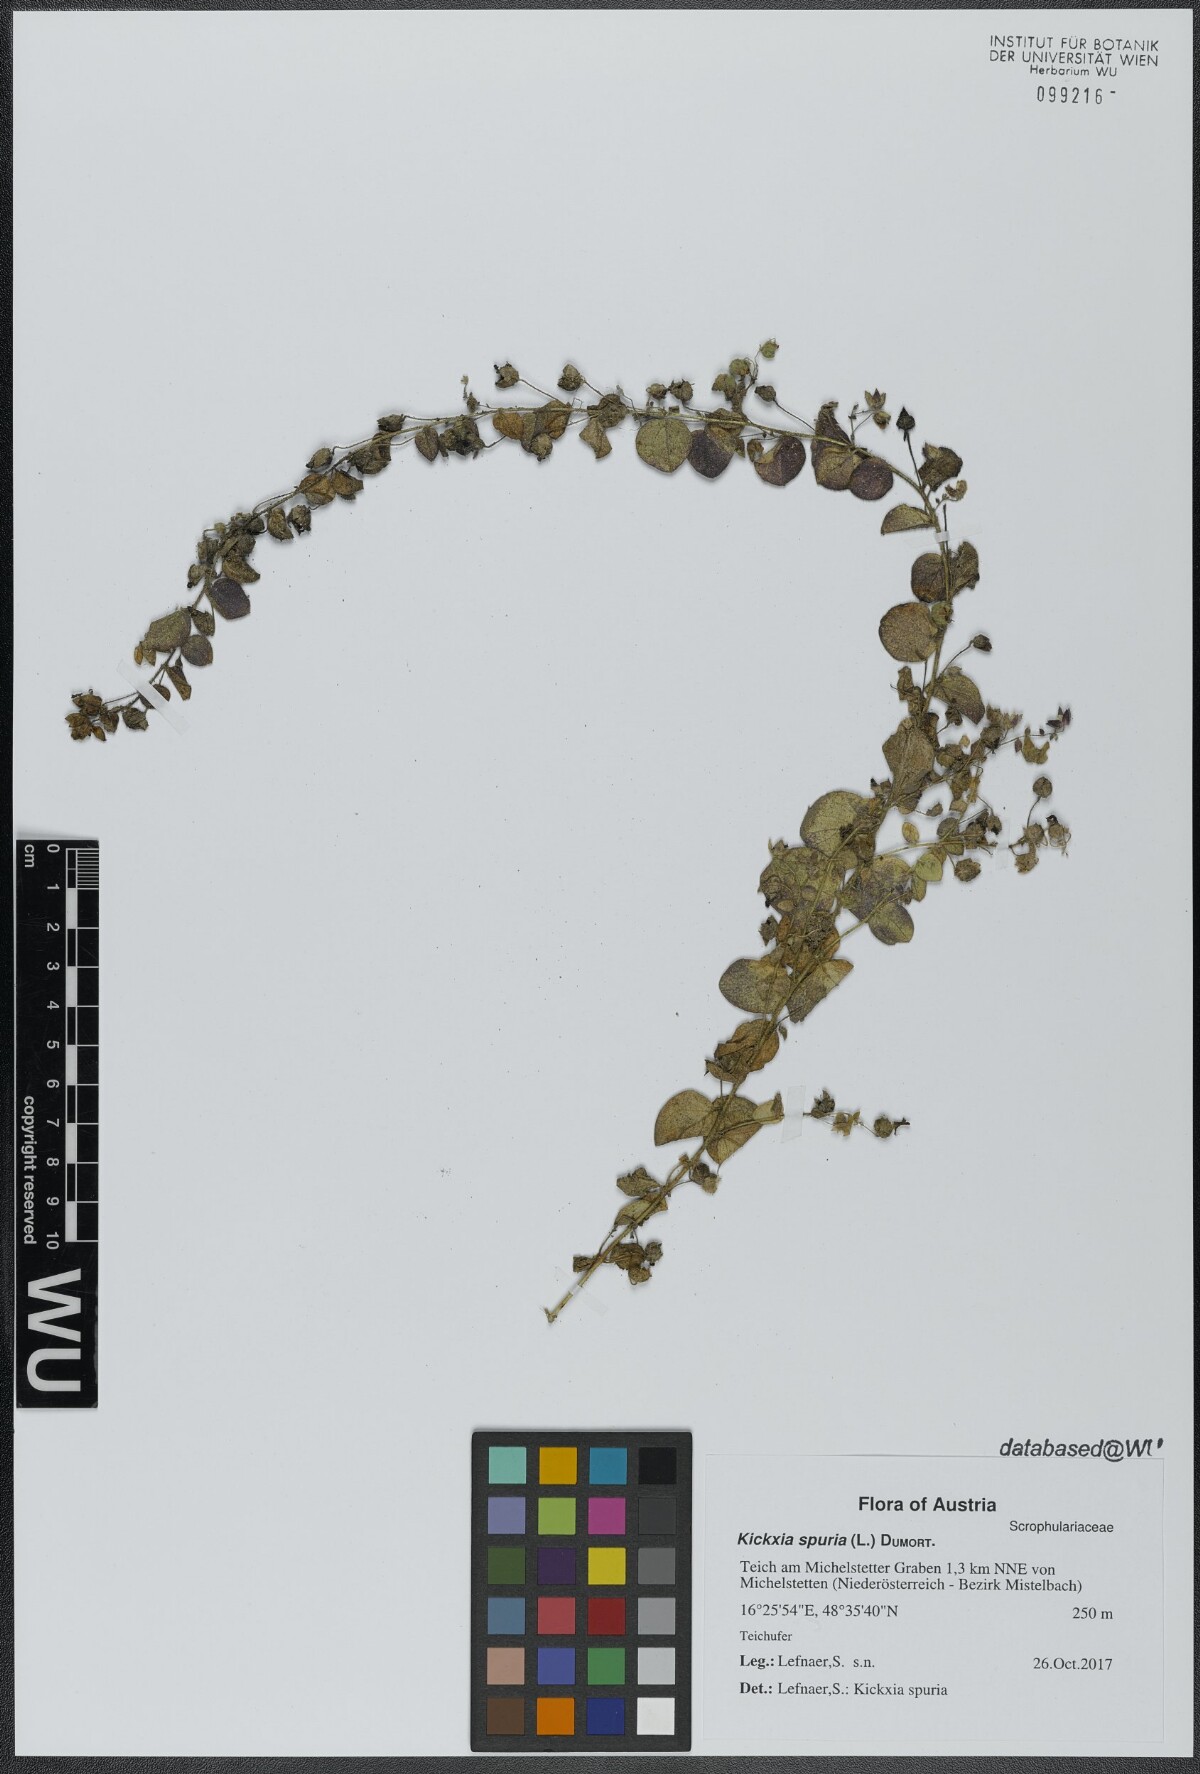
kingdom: Plantae
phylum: Tracheophyta
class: Magnoliopsida
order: Lamiales
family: Plantaginaceae
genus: Kickxia
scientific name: Kickxia spuria
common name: Round-leaved fluellen
